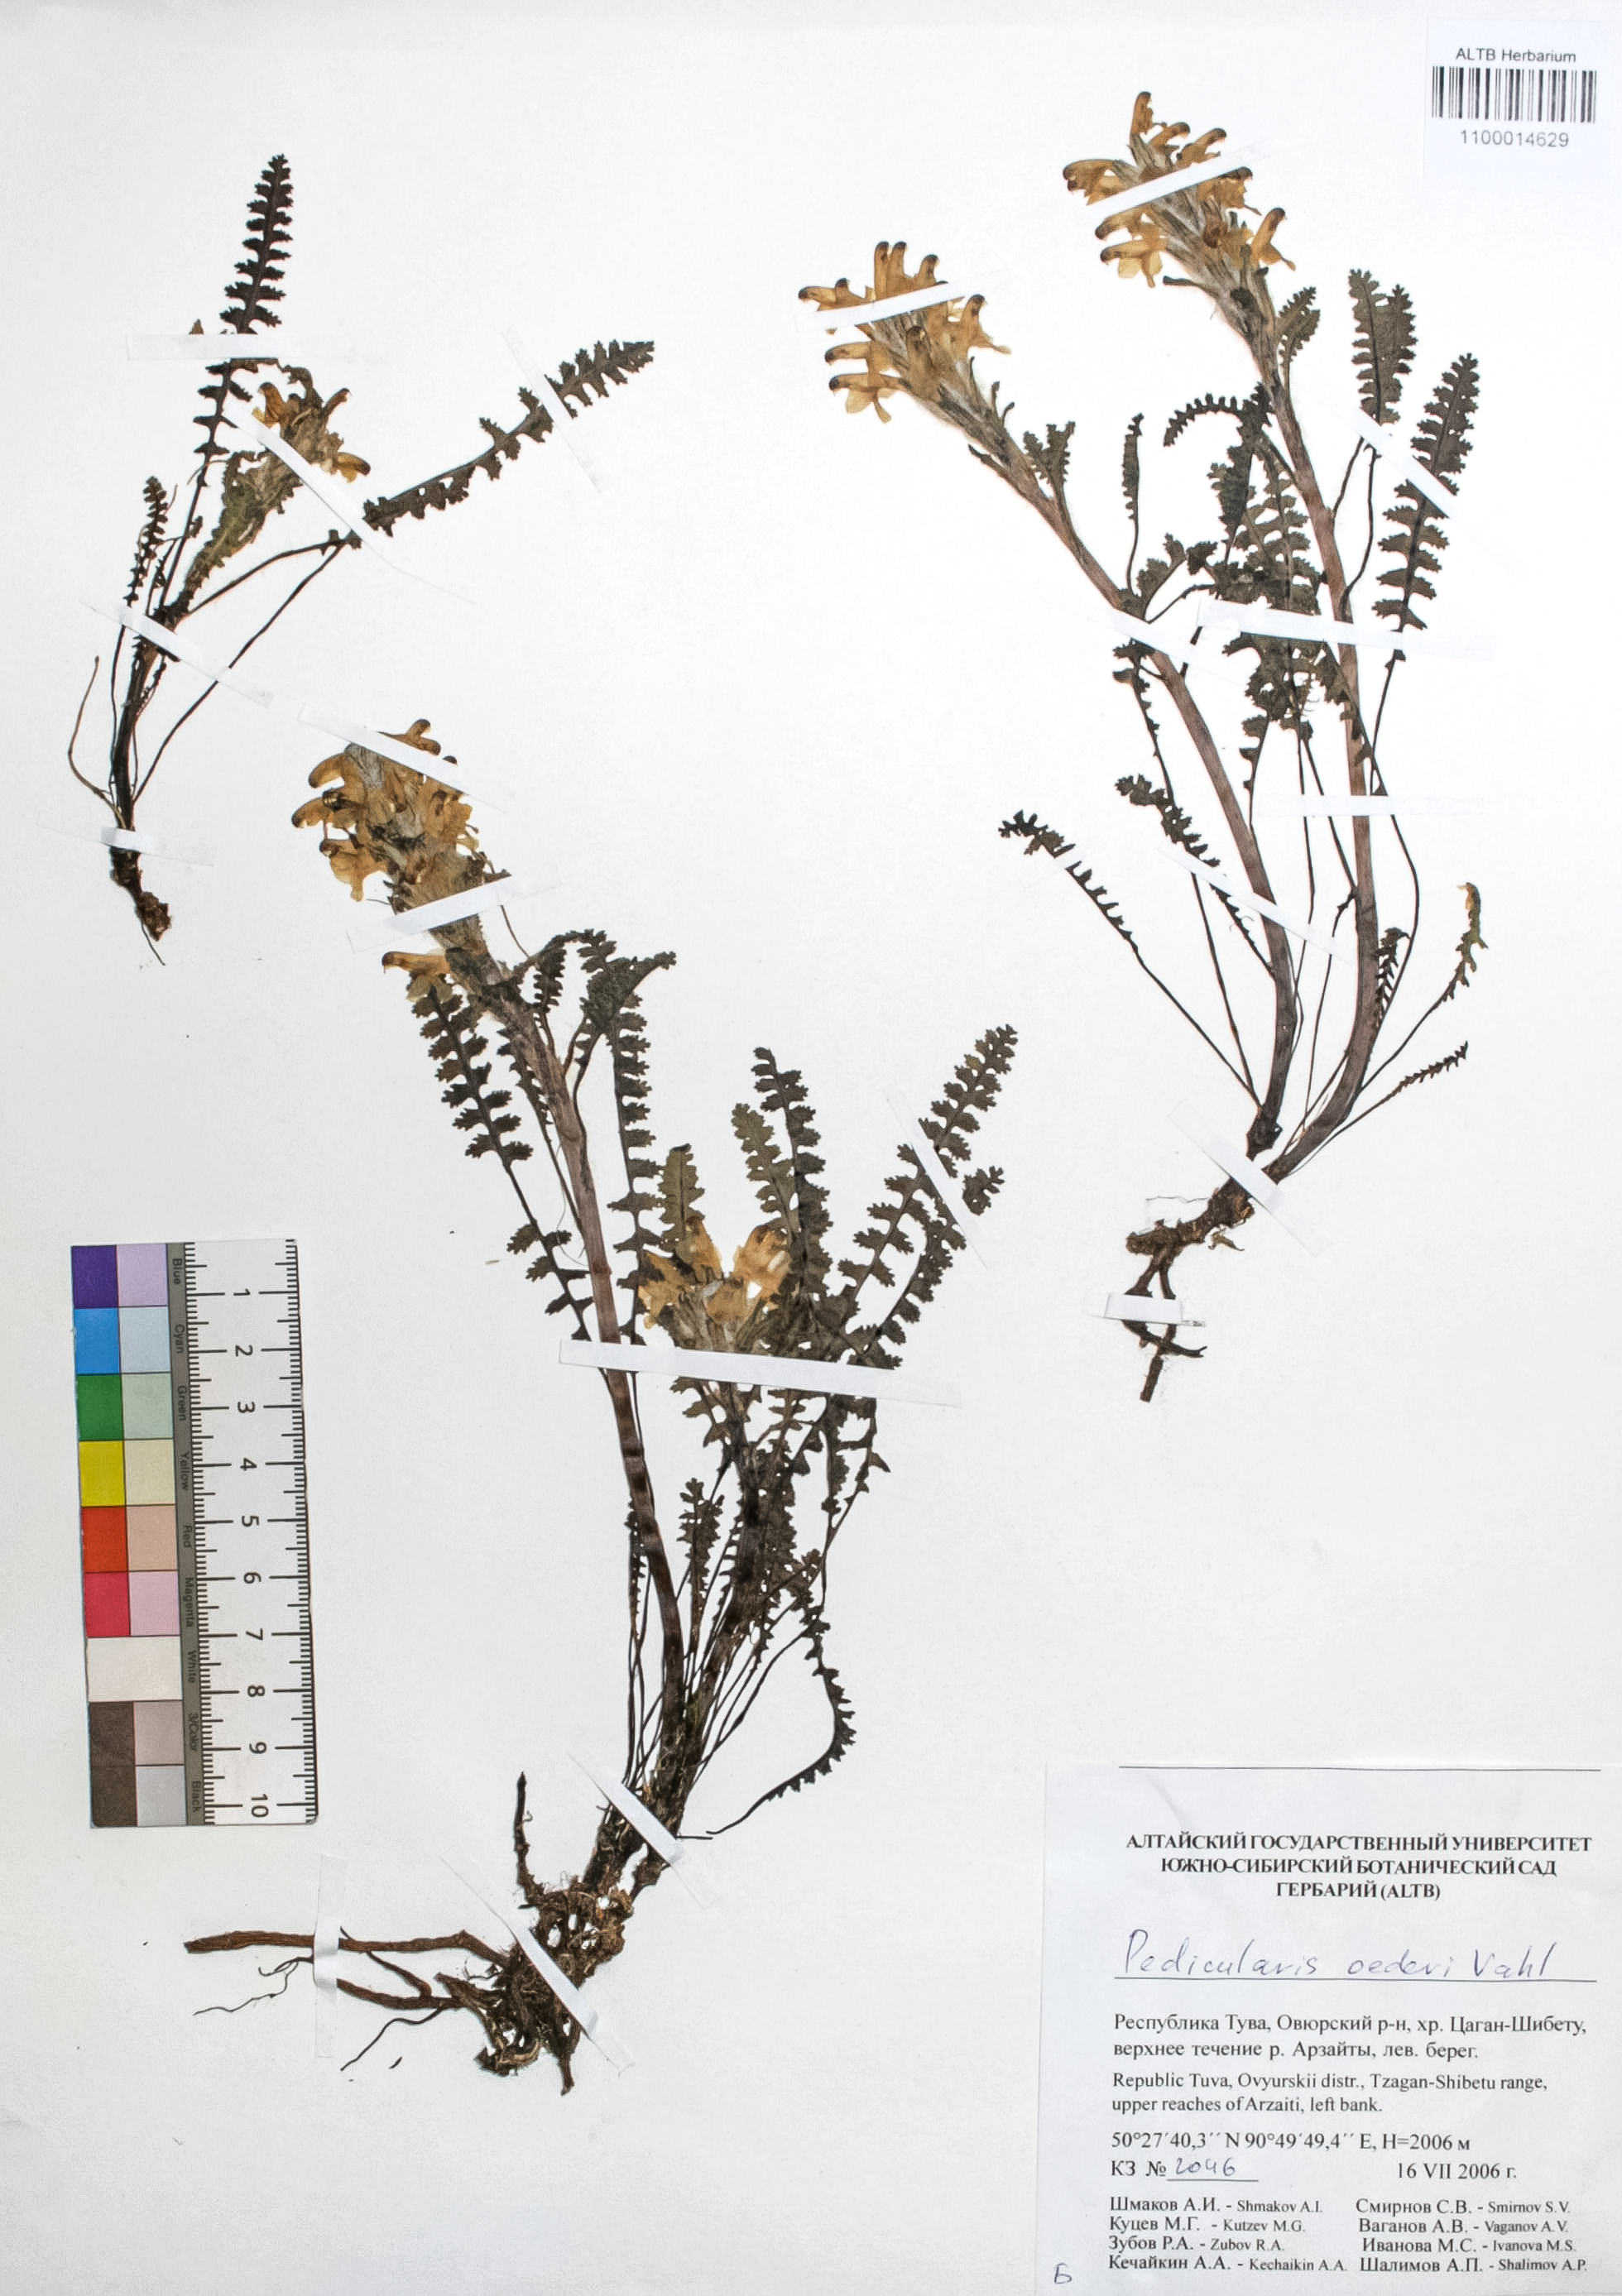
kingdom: Plantae
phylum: Tracheophyta
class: Magnoliopsida
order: Caryophyllales
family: Caryophyllaceae
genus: Silene
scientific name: Silene graminifolia
